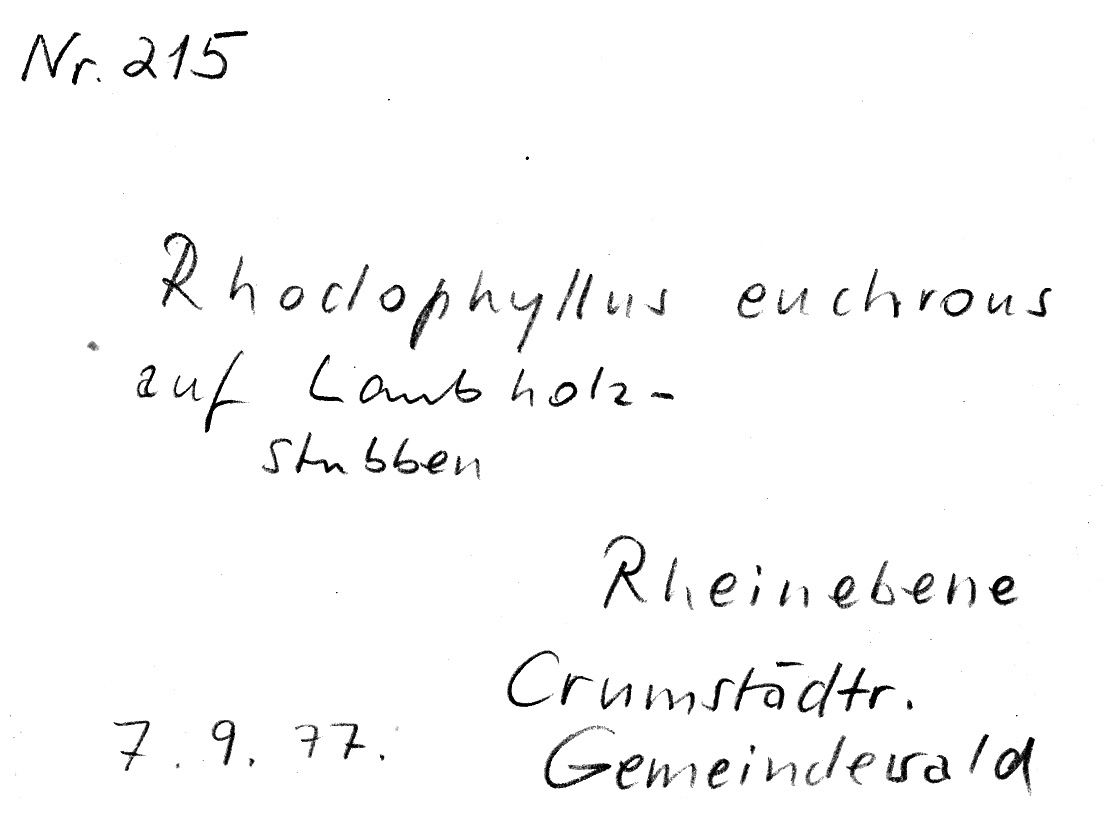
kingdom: Fungi
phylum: Basidiomycota
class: Agaricomycetes
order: Agaricales
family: Entolomataceae
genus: Entoloma
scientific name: Entoloma euchroum
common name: Stump pinkgill
